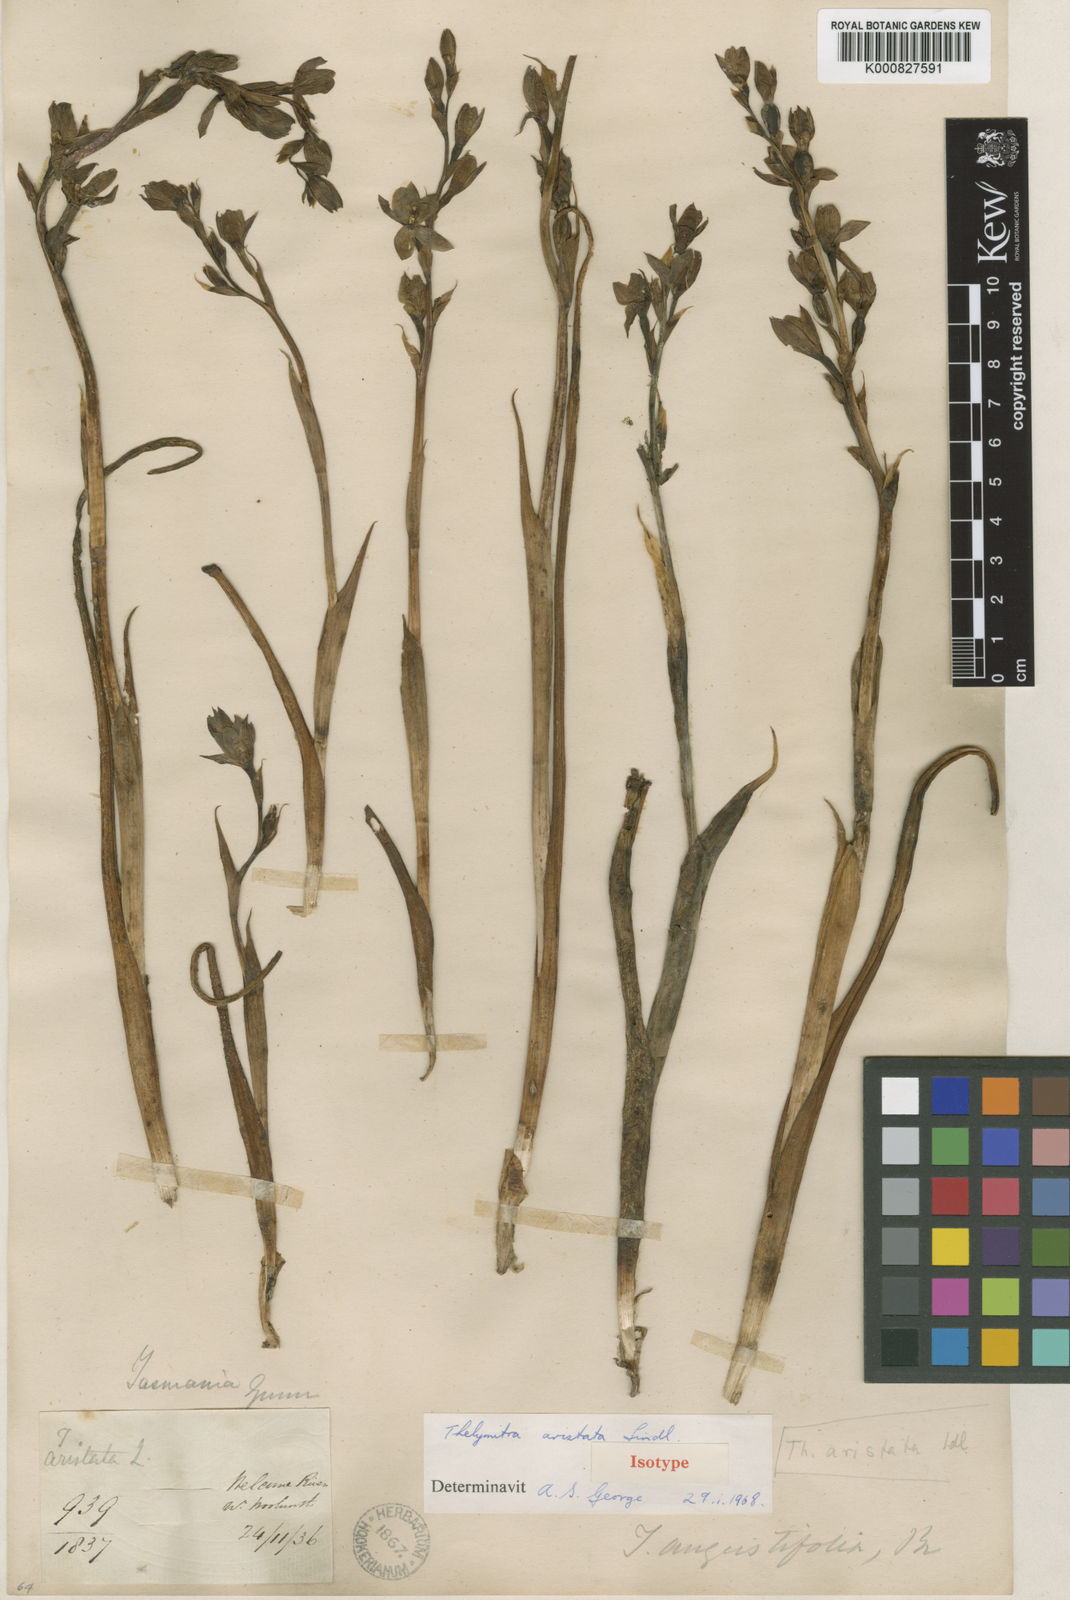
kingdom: Plantae
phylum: Tracheophyta
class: Liliopsida
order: Asparagales
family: Orchidaceae
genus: Thelymitra
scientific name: Thelymitra aristata
